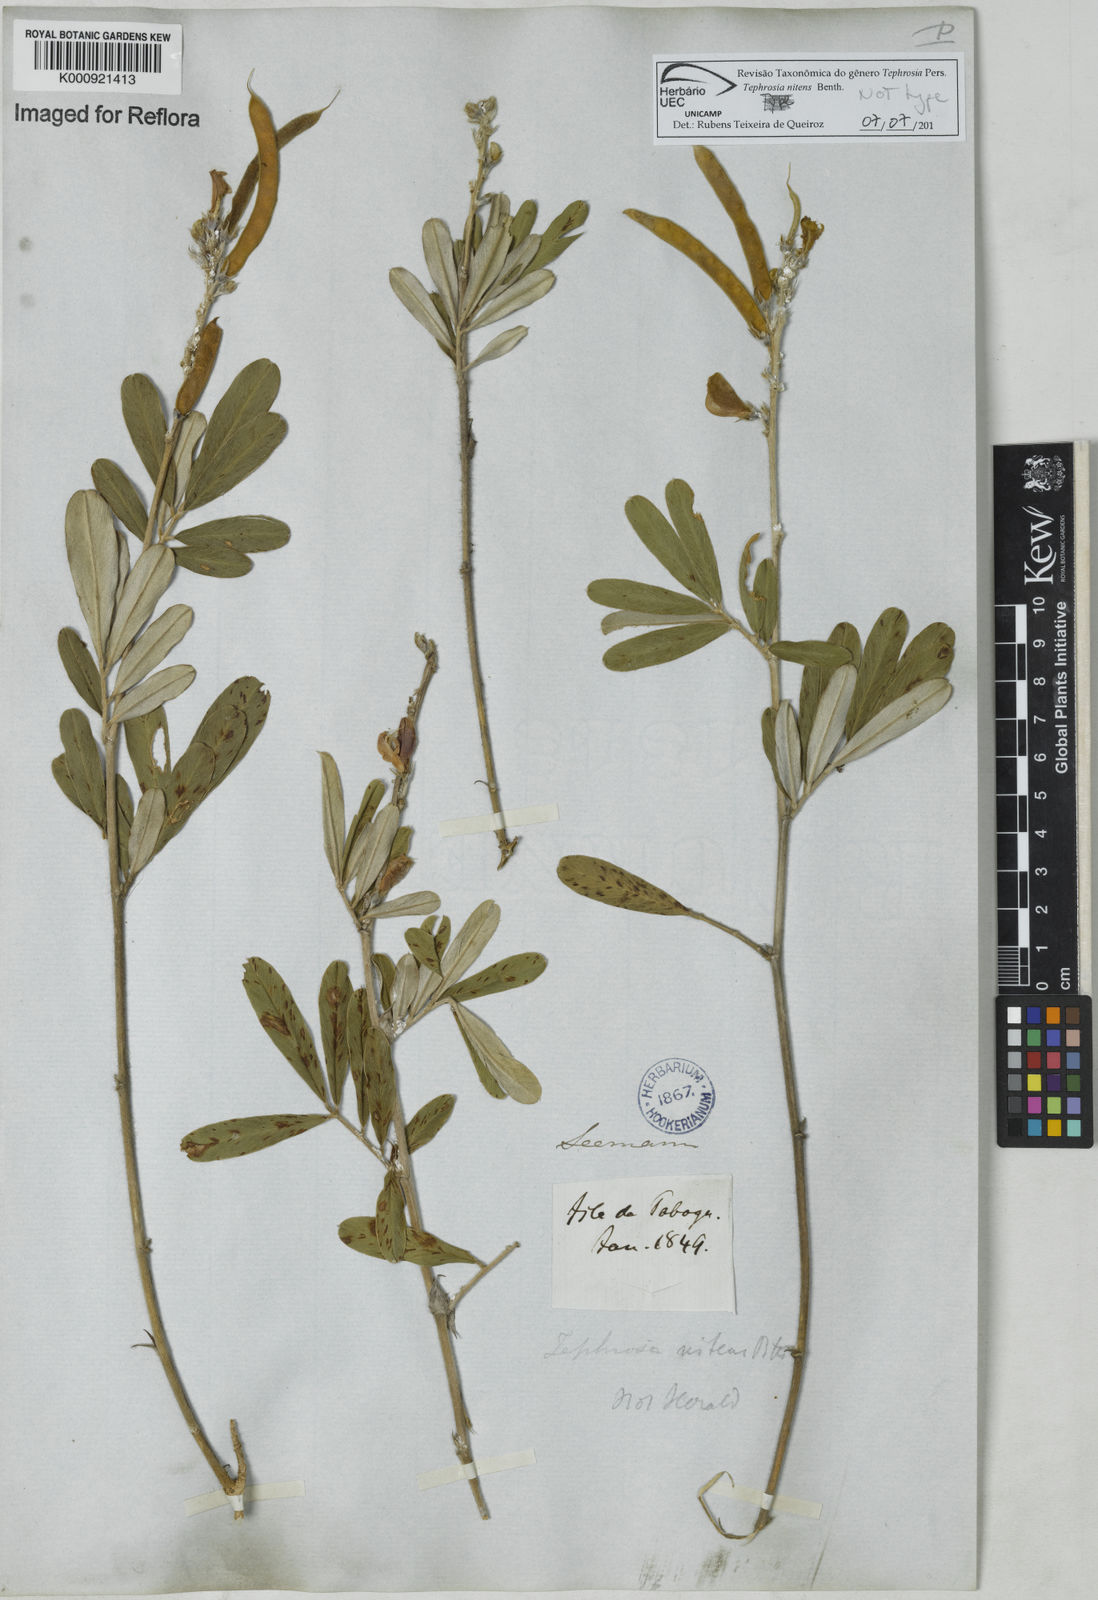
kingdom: Plantae
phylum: Tracheophyta
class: Magnoliopsida
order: Fabales
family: Fabaceae
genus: Tephrosia
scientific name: Tephrosia nitens
